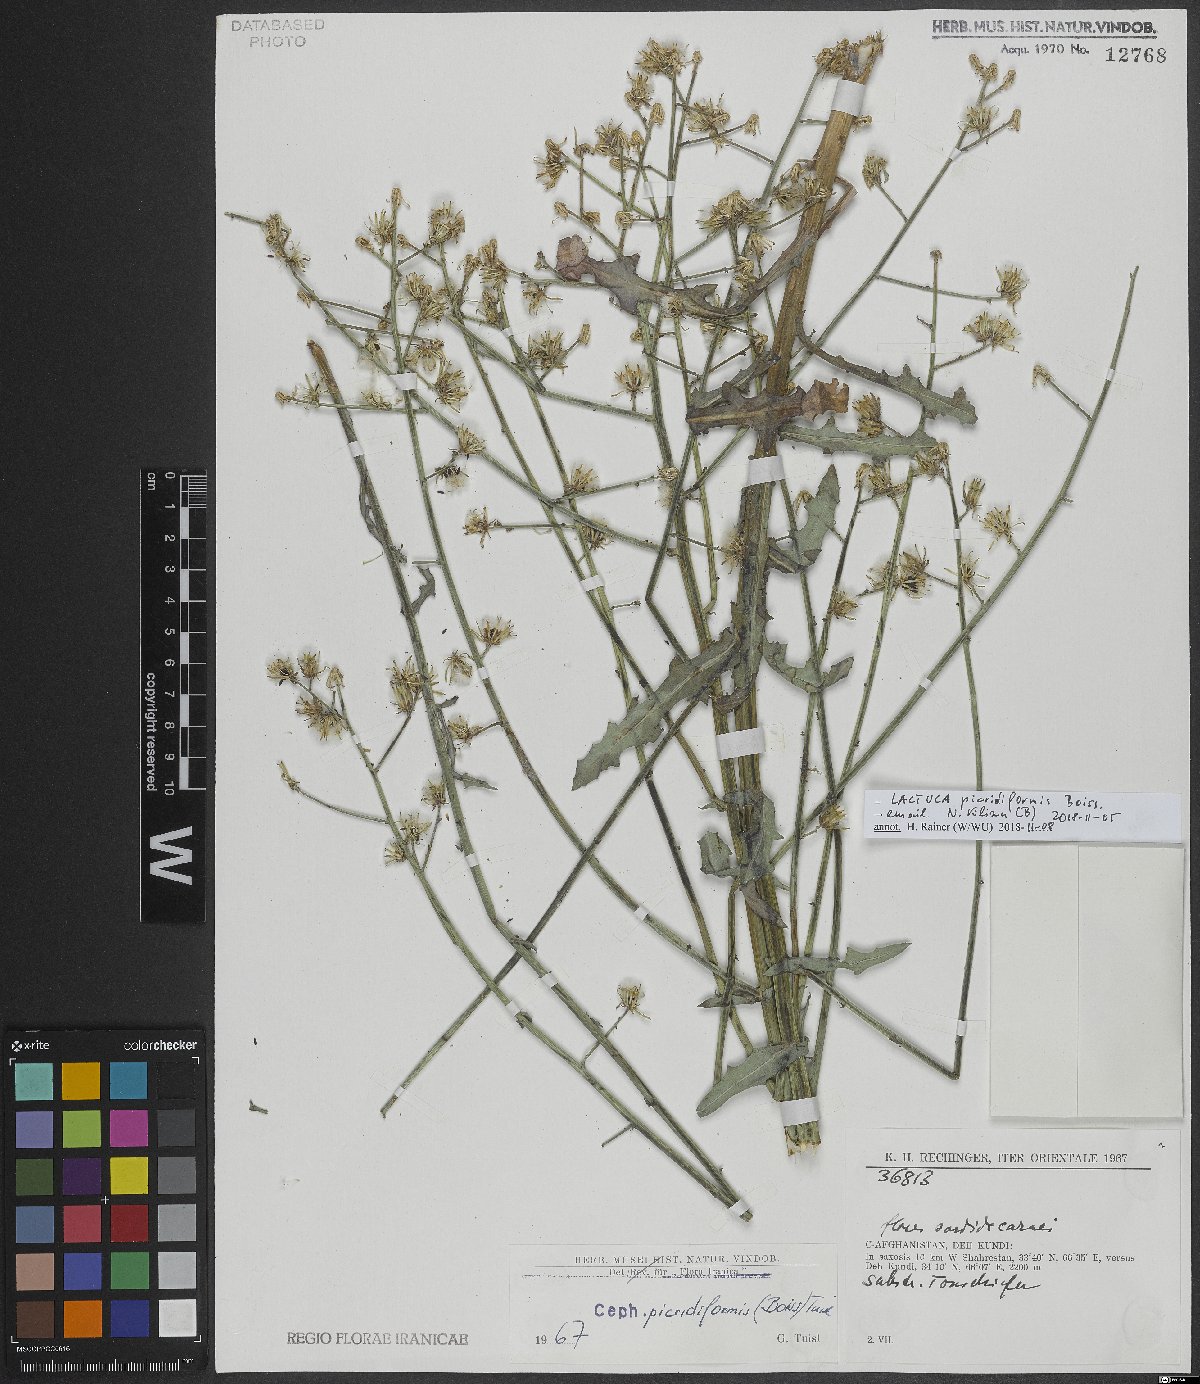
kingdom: Plantae
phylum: Tracheophyta
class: Magnoliopsida
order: Asterales
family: Asteraceae
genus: Lactuca
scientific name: Lactuca picridiformis
